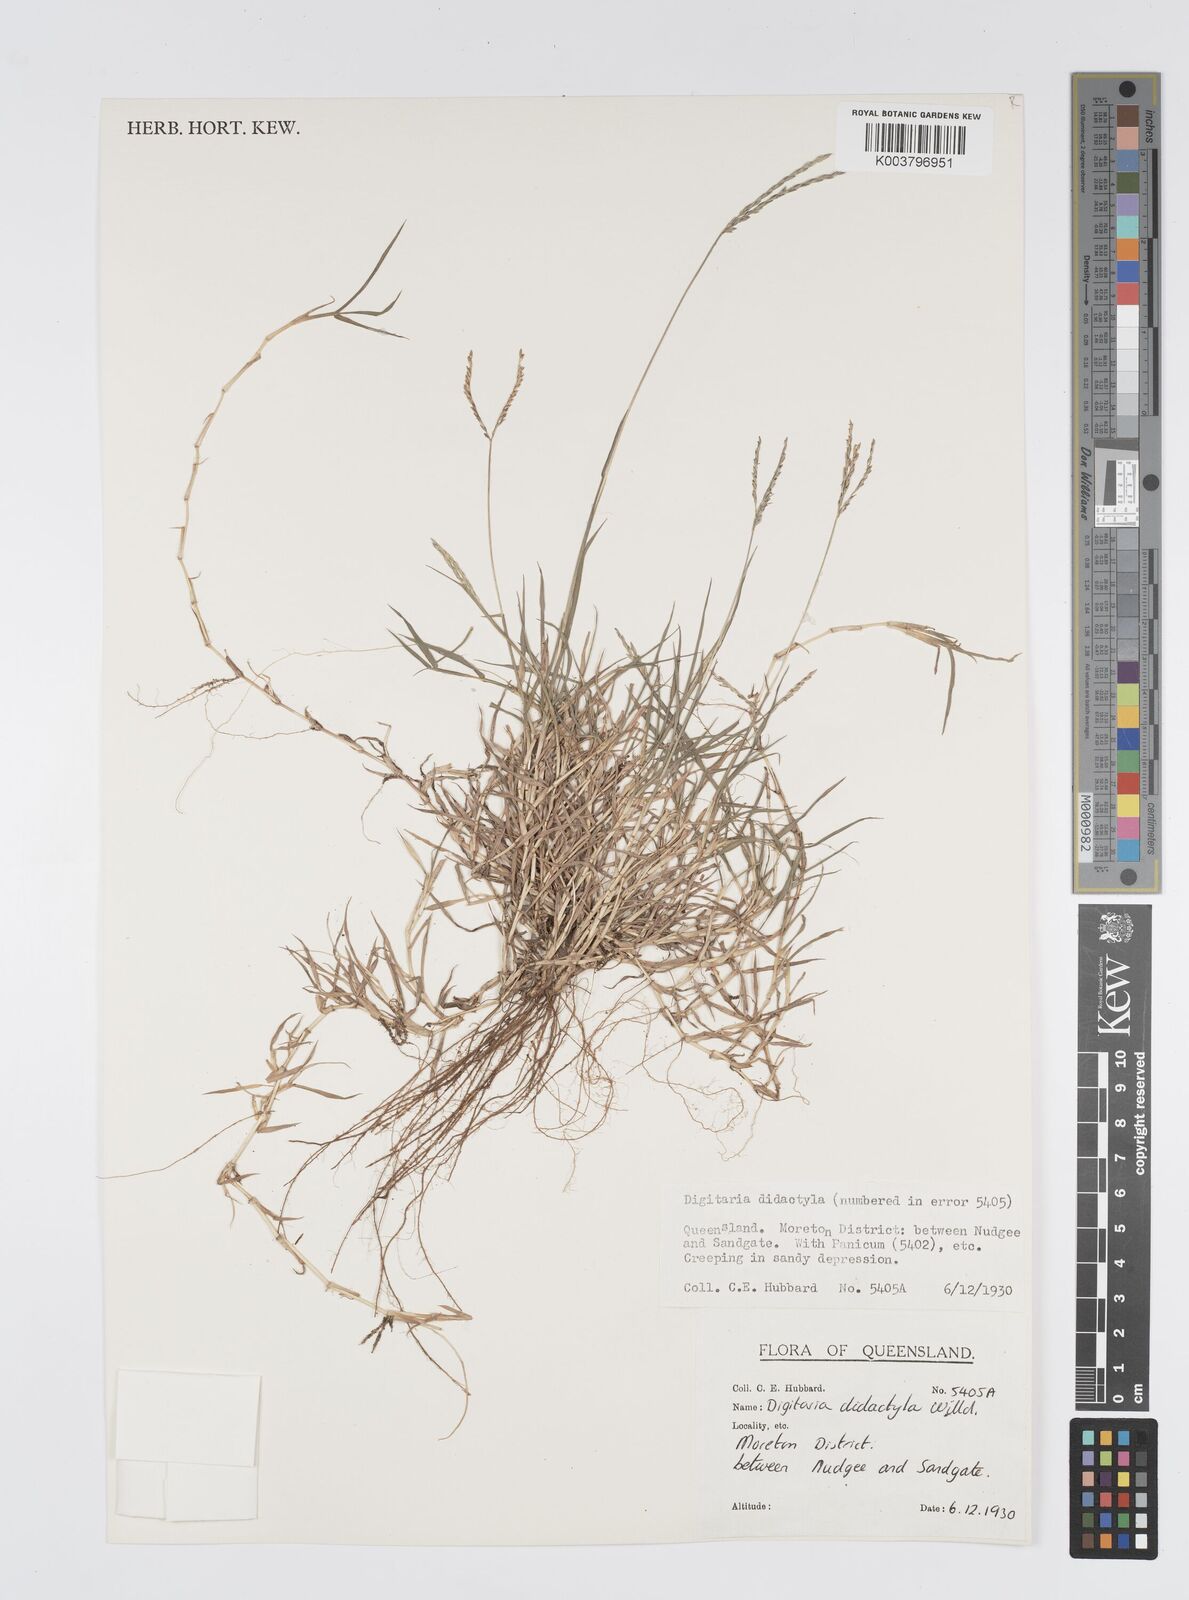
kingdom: Plantae
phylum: Tracheophyta
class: Liliopsida
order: Poales
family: Poaceae
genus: Digitaria
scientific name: Digitaria didactyla
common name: Blue couch
